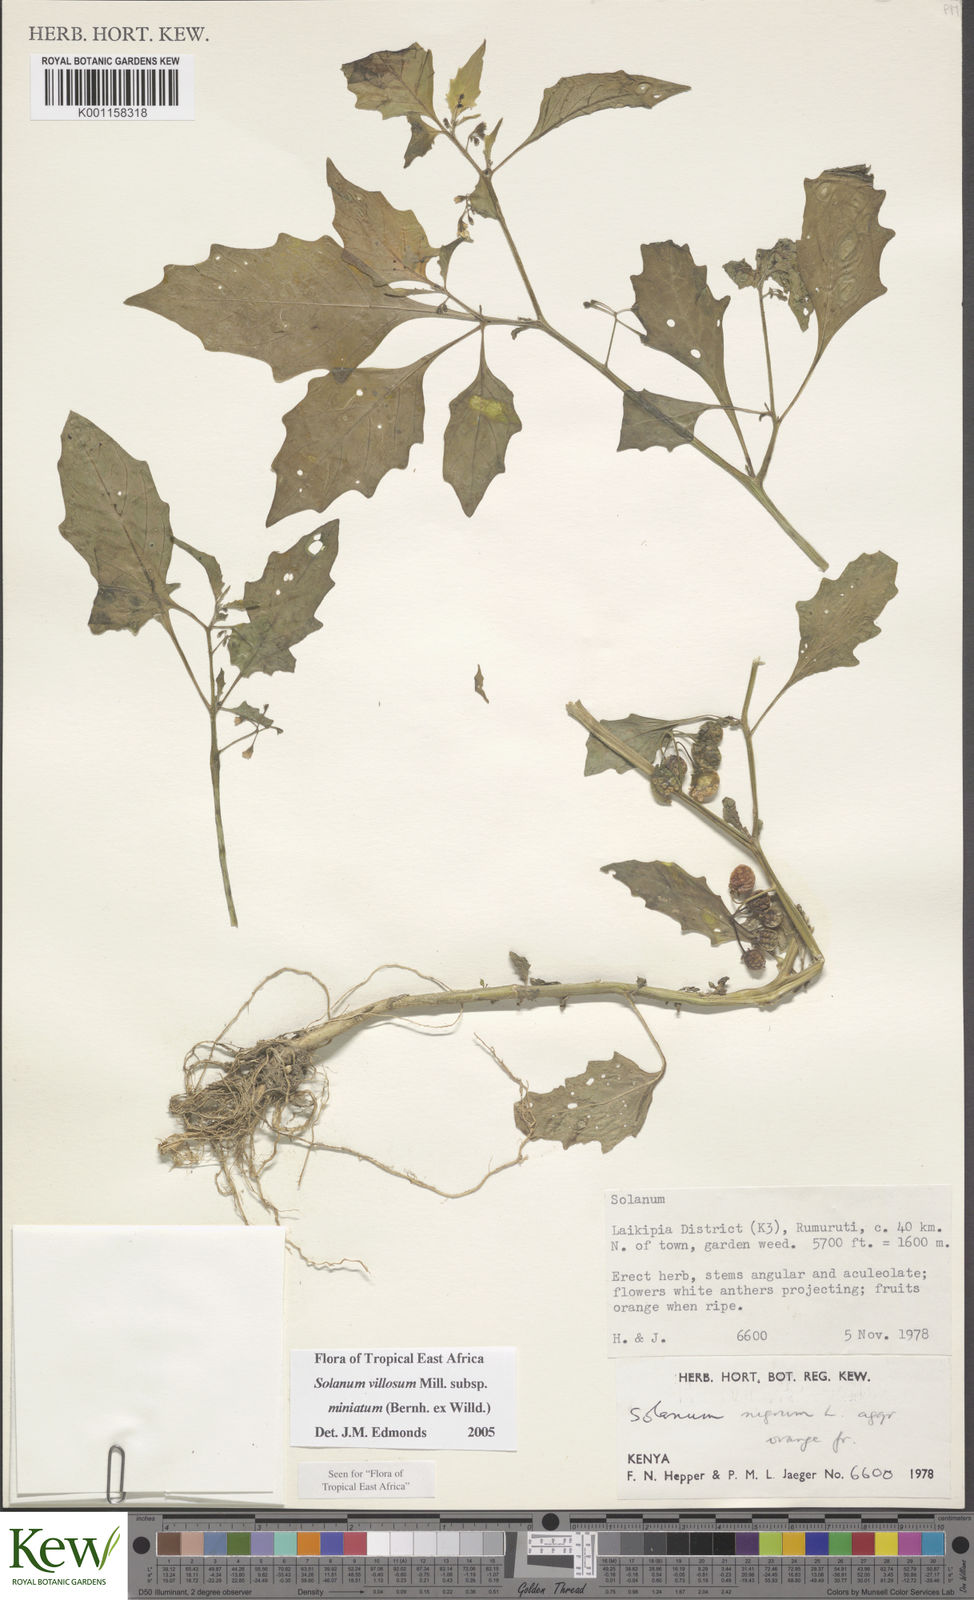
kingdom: Plantae
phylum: Tracheophyta
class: Magnoliopsida
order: Solanales
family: Solanaceae
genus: Solanum
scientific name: Solanum villosum
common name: Red nightshade
